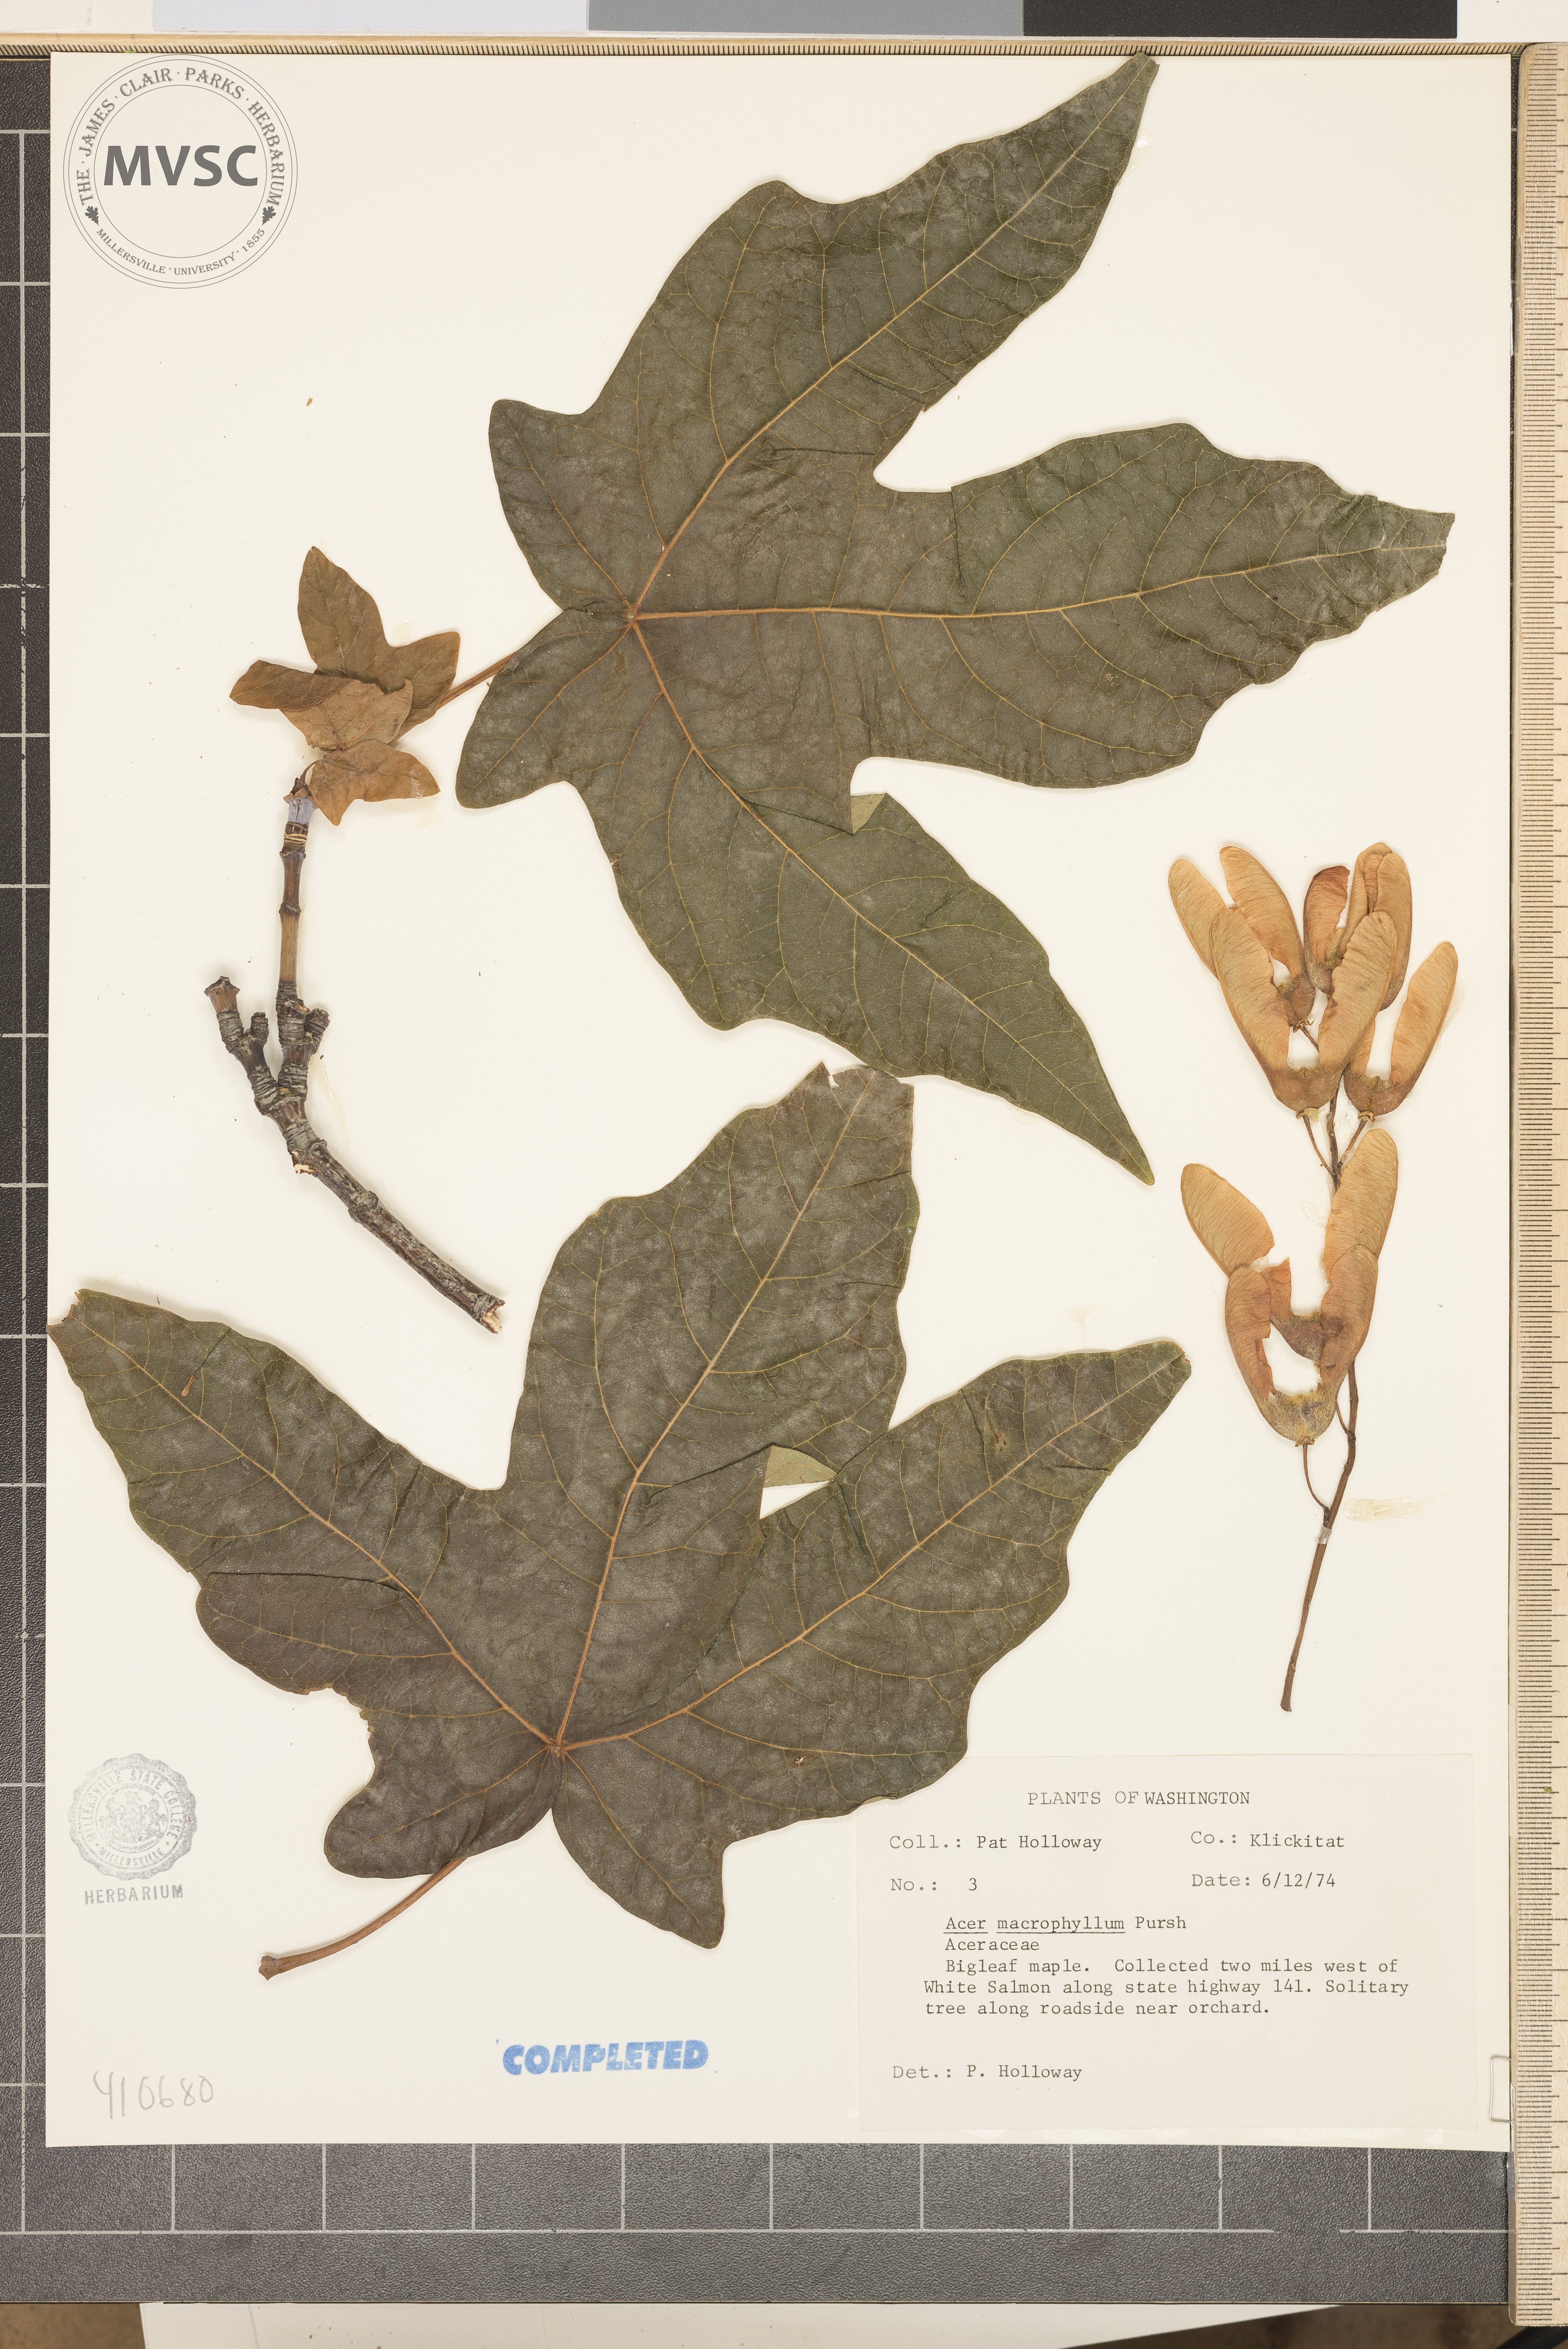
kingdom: Plantae
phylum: Tracheophyta
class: Magnoliopsida
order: Sapindales
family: Sapindaceae
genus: Acer
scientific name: Acer macrophyllum
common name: Bigleaf Maple
